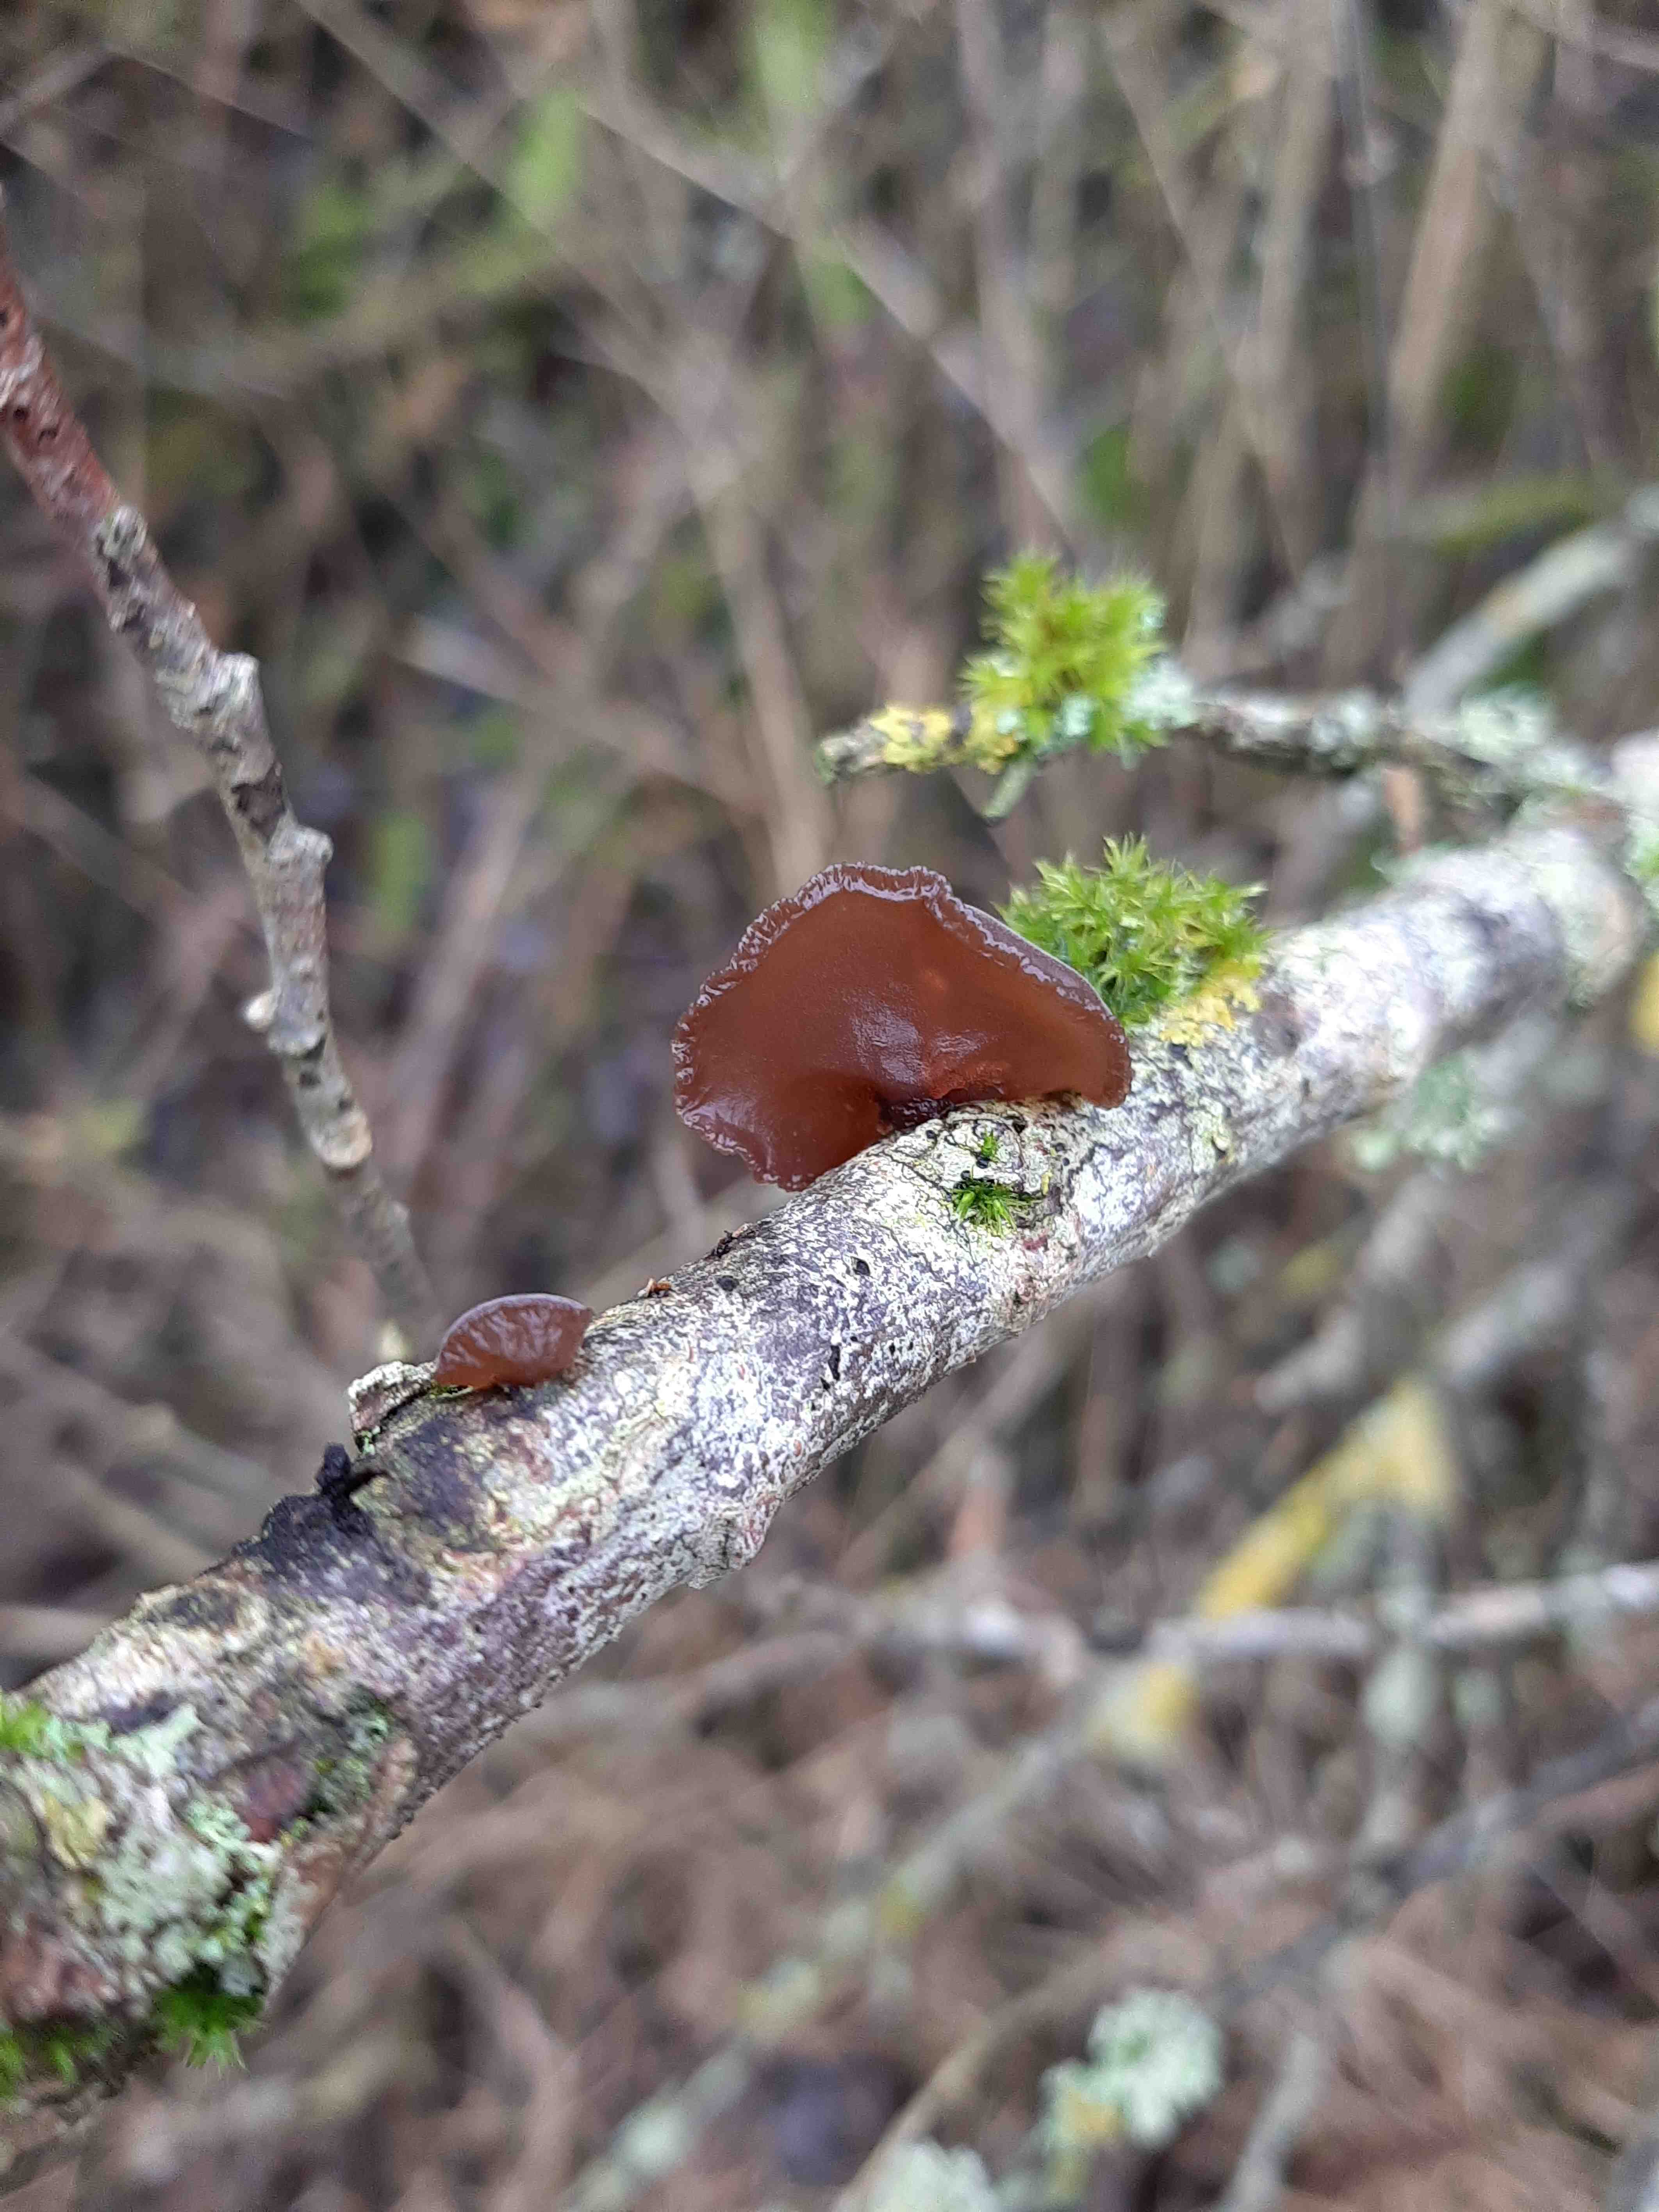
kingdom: Fungi
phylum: Basidiomycota
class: Agaricomycetes
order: Auriculariales
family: Auriculariaceae
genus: Exidia
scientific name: Exidia recisa
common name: pile-bævretop
